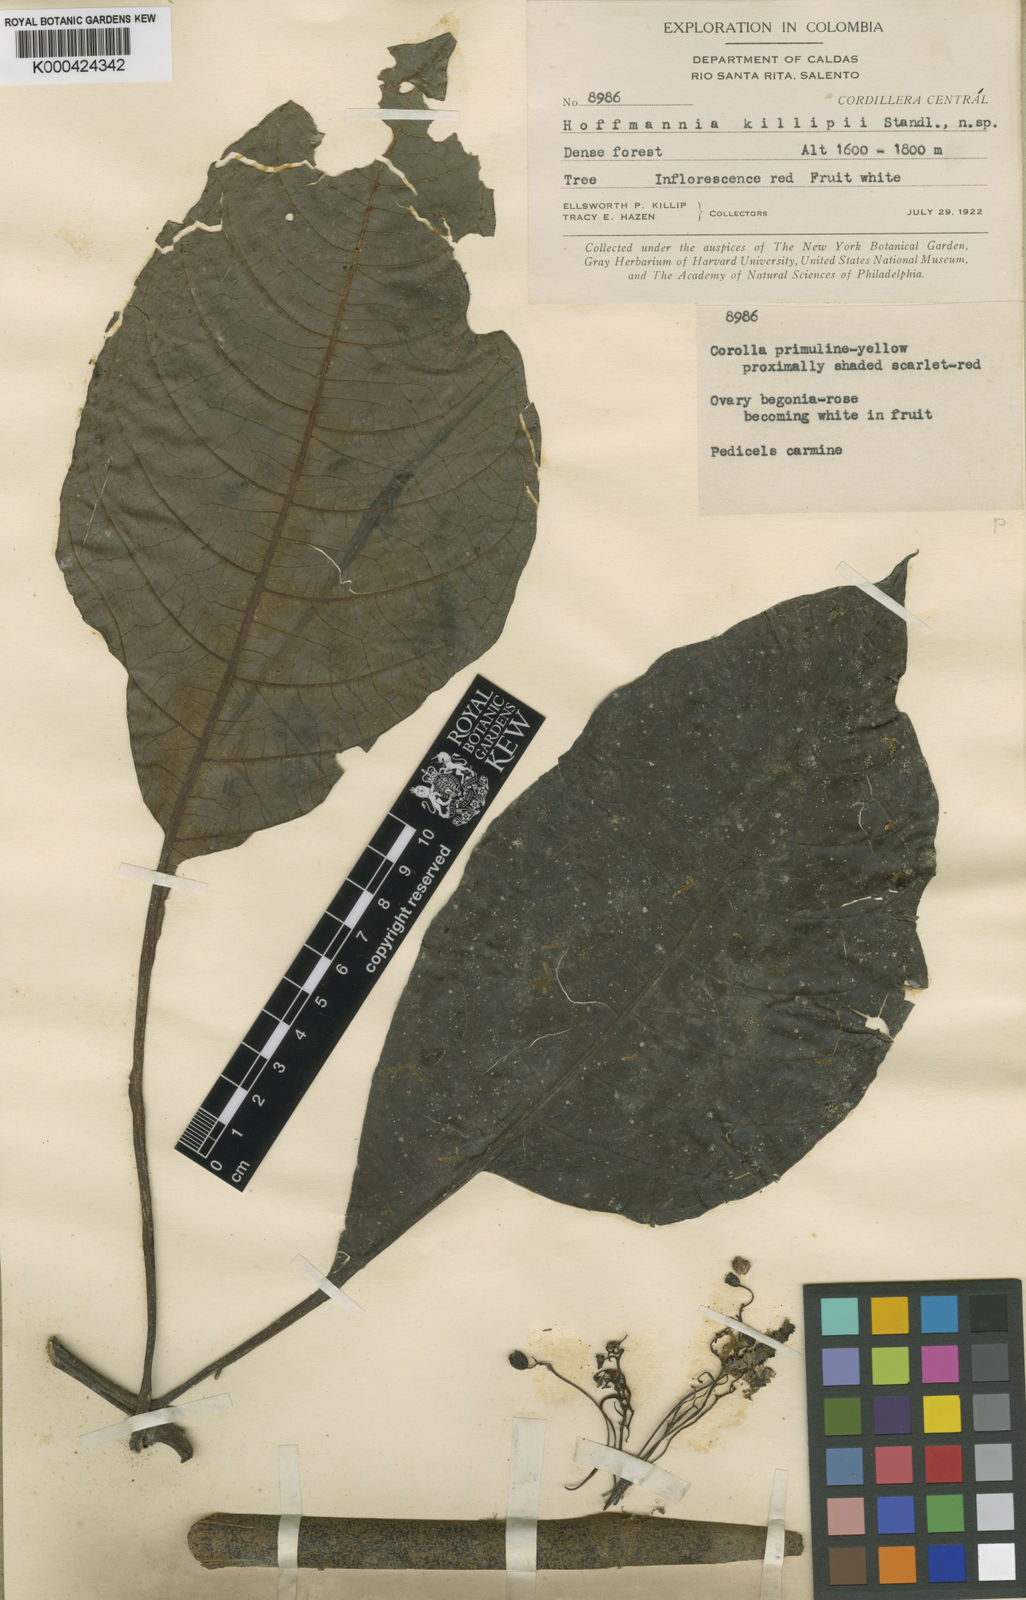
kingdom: Plantae
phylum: Tracheophyta
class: Magnoliopsida
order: Gentianales
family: Rubiaceae
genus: Hoffmannia
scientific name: Hoffmannia killipii
